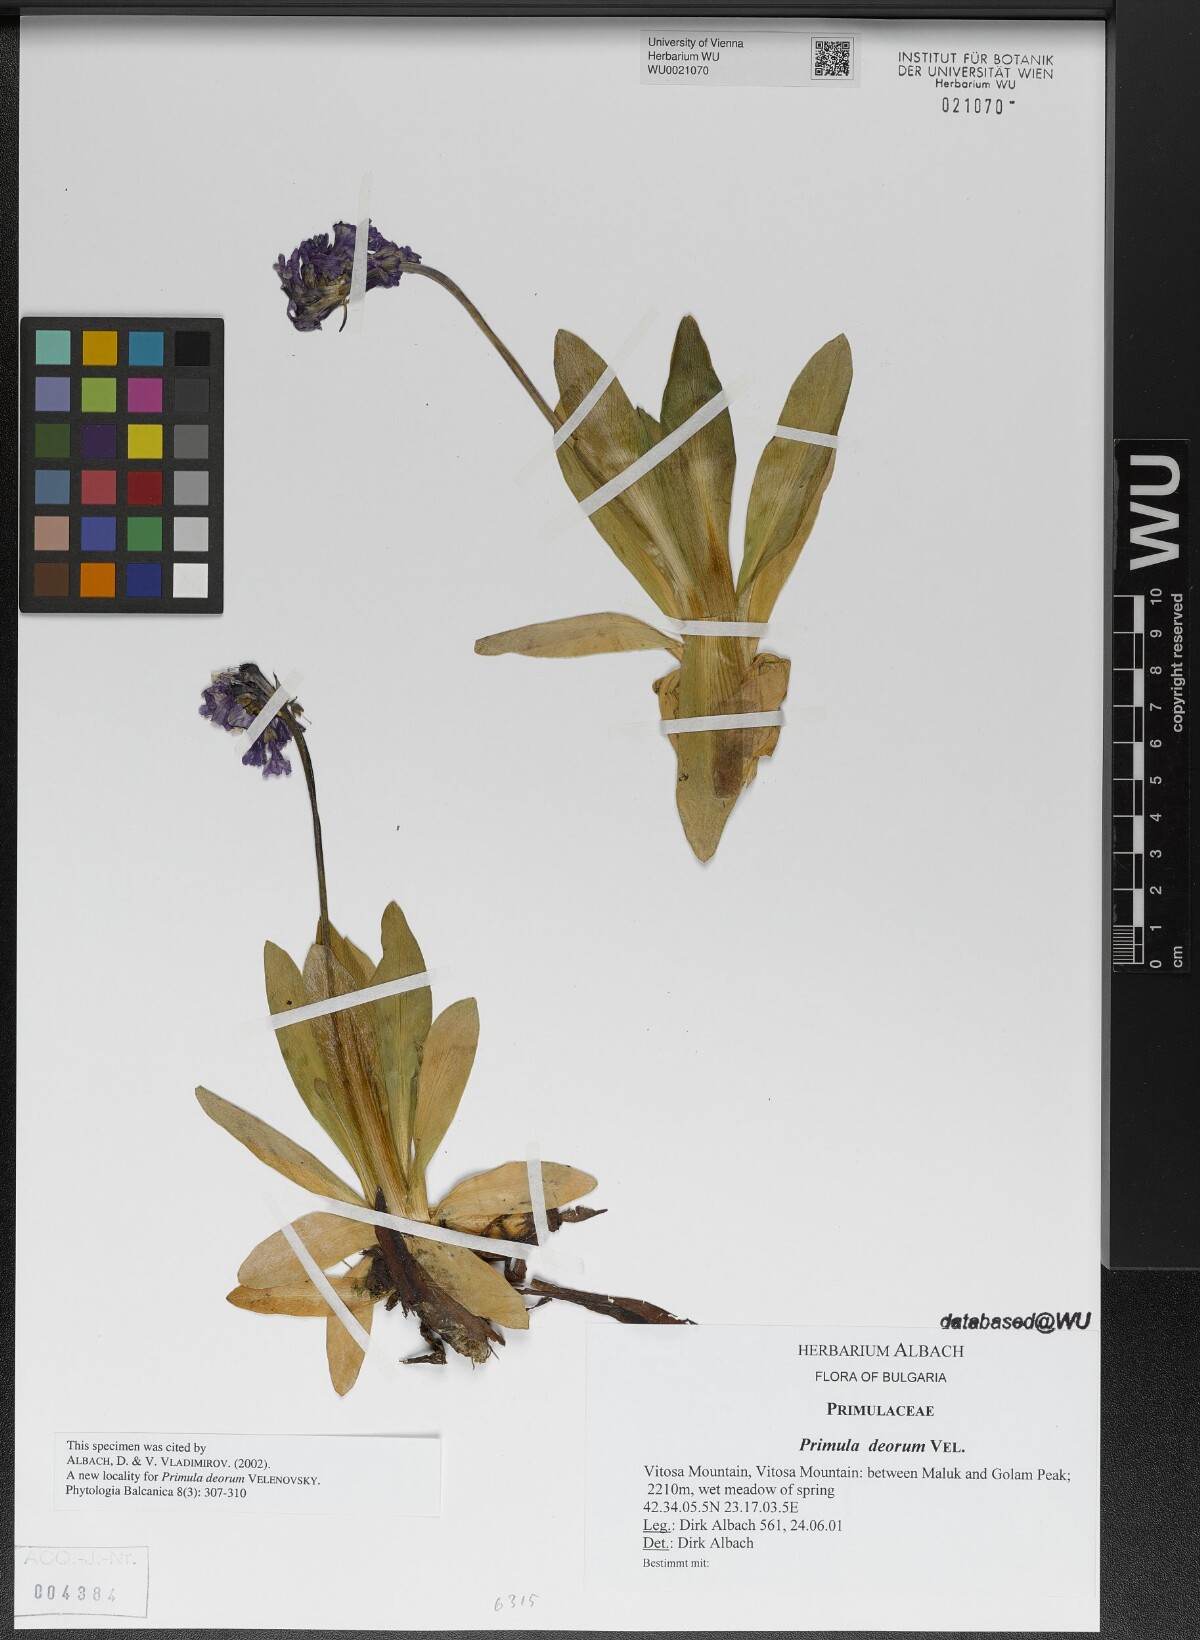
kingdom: Plantae
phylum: Tracheophyta
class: Magnoliopsida
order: Ericales
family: Primulaceae
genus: Primula
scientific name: Primula deorum
